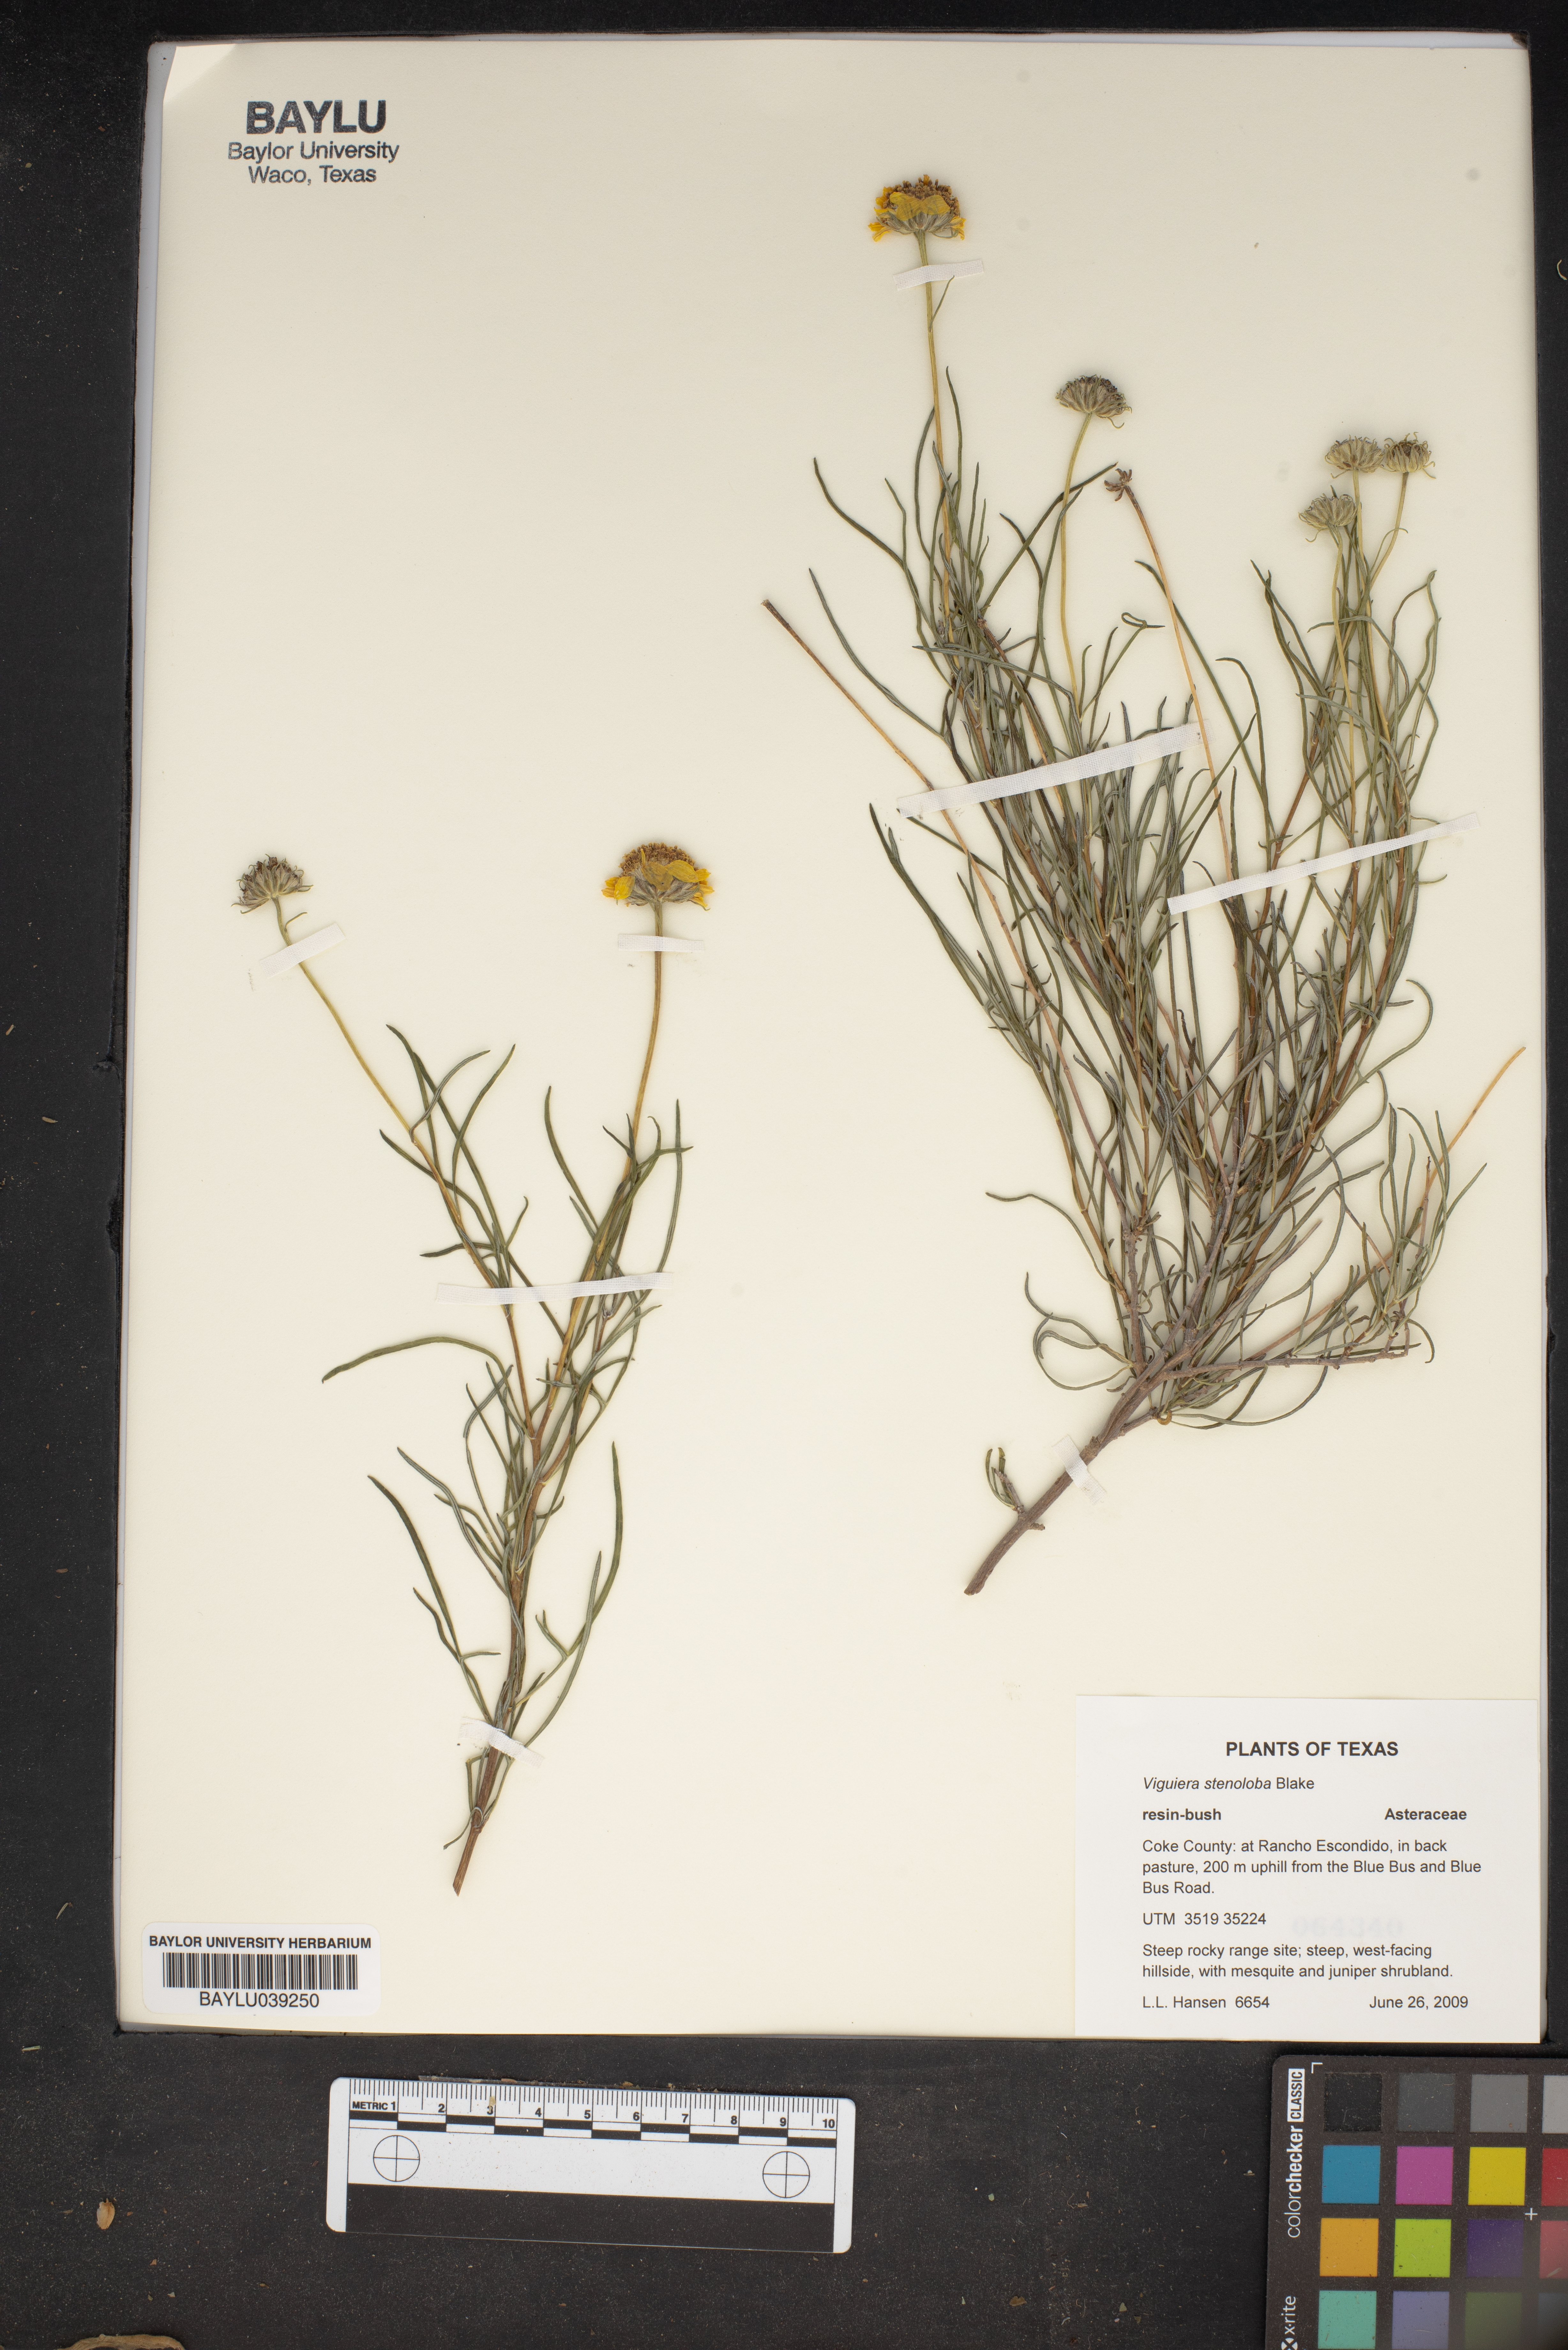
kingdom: Plantae
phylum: Tracheophyta
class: Magnoliopsida
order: Asterales
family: Asteraceae
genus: Sidneya
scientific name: Sidneya tenuifolia
